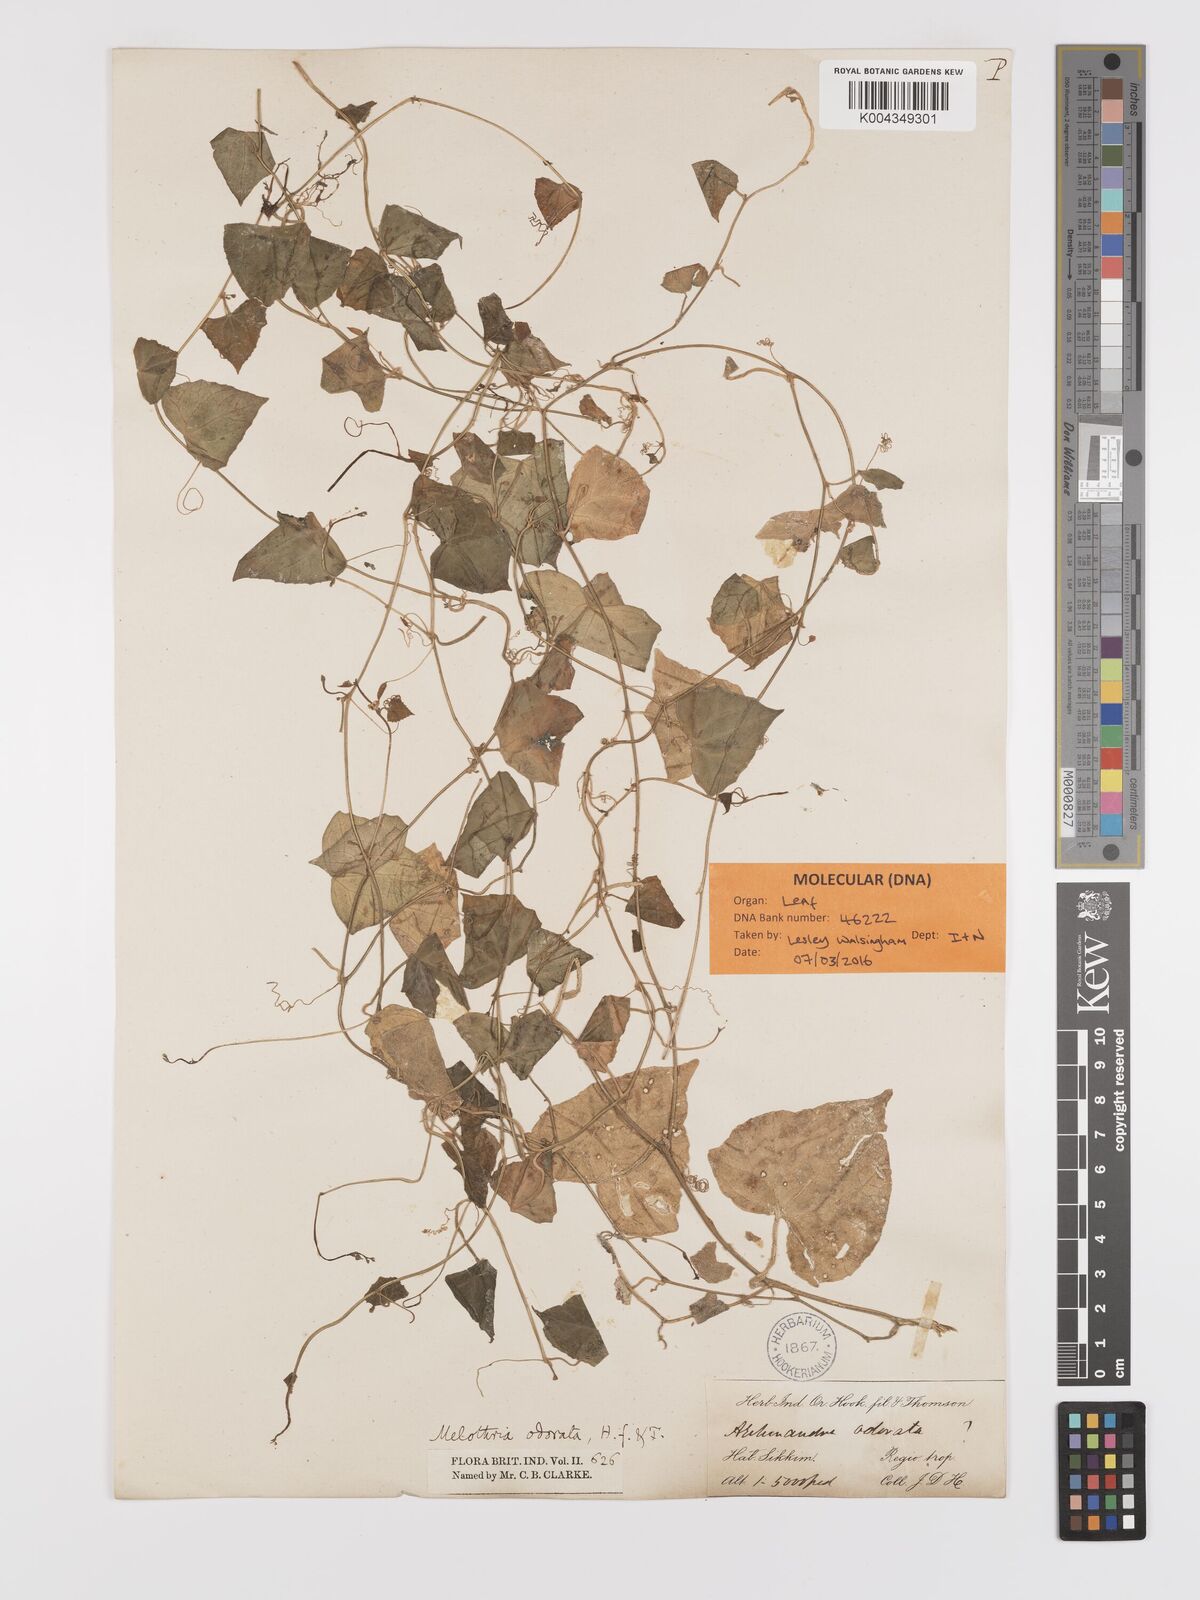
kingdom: Plantae
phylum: Tracheophyta
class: Magnoliopsida
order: Cucurbitales
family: Cucurbitaceae
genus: Zehneria
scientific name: Zehneria odorata
